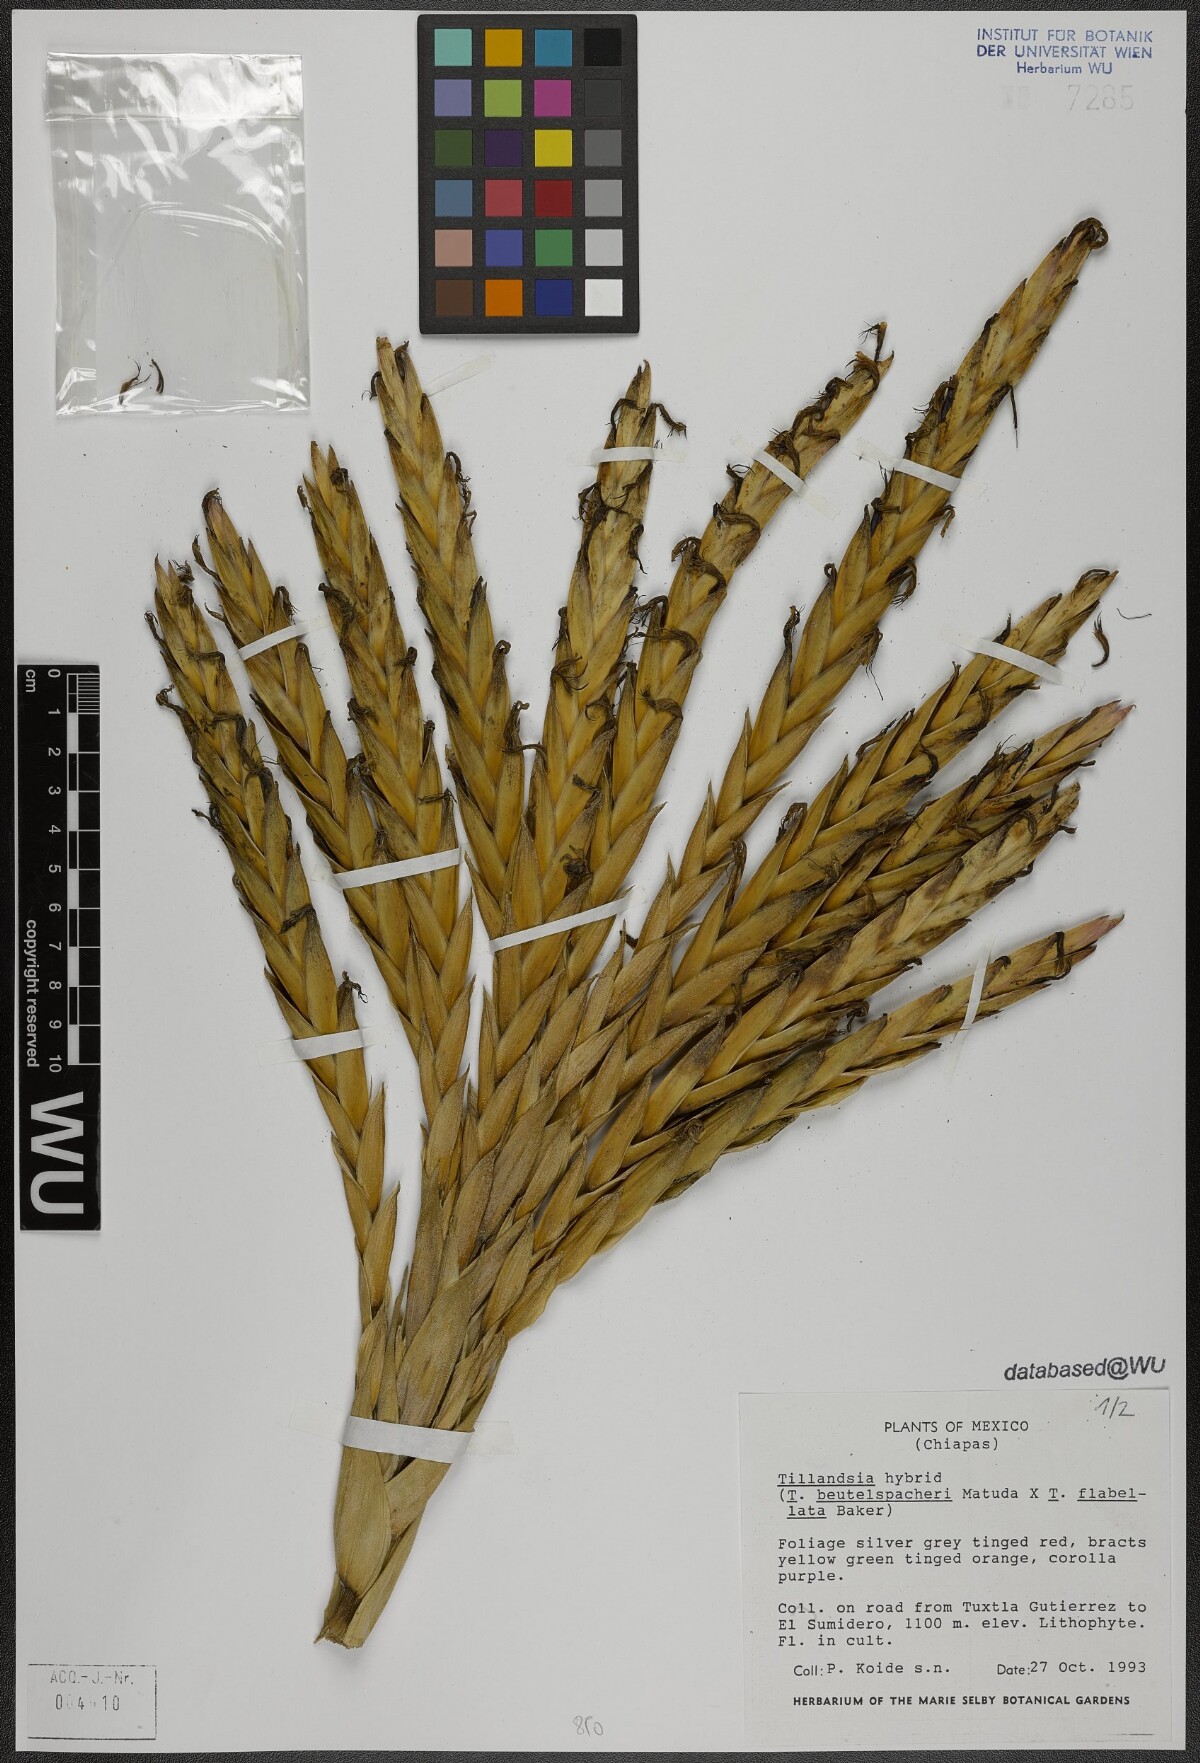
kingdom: Plantae
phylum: Tracheophyta
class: Liliopsida
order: Poales
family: Bromeliaceae
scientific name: Bromeliaceae
